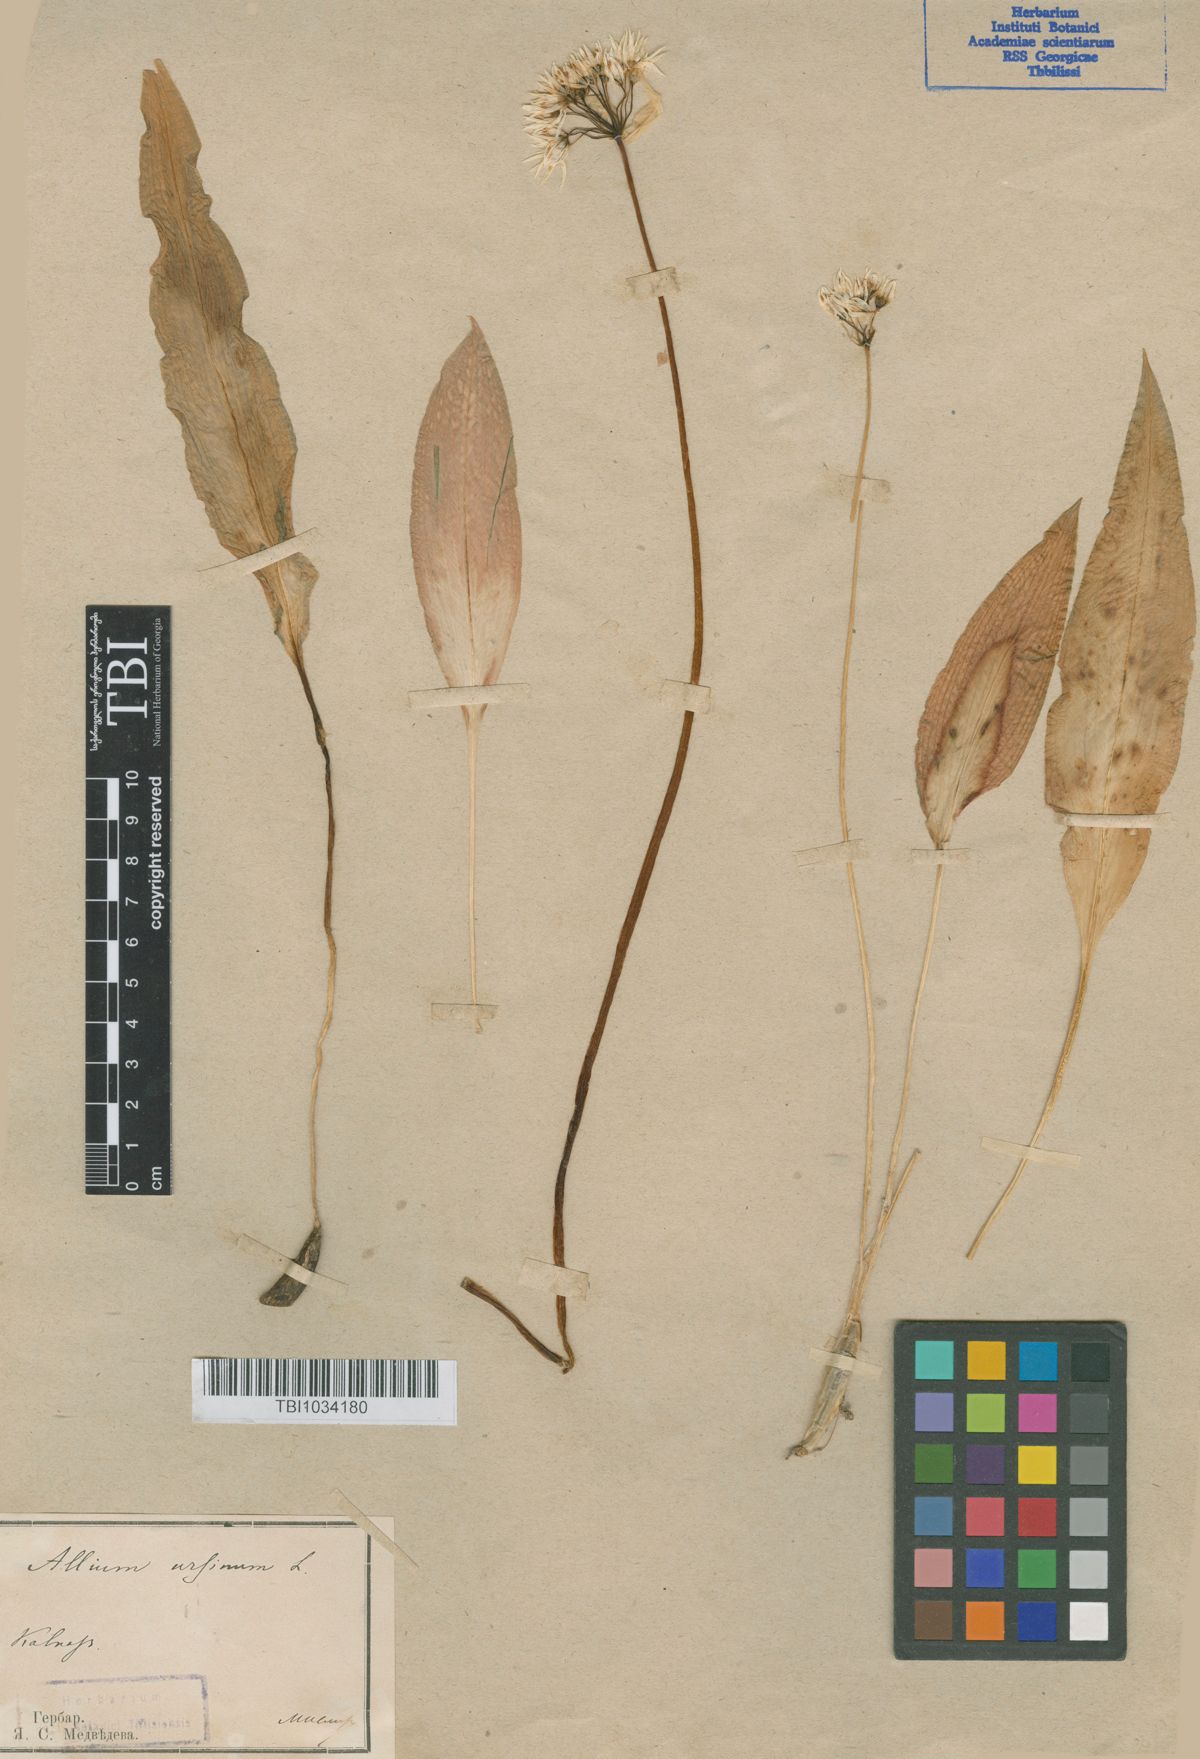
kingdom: Plantae
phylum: Tracheophyta
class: Liliopsida
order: Asparagales
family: Amaryllidaceae
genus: Allium
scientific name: Allium ursinum
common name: Ramsons
